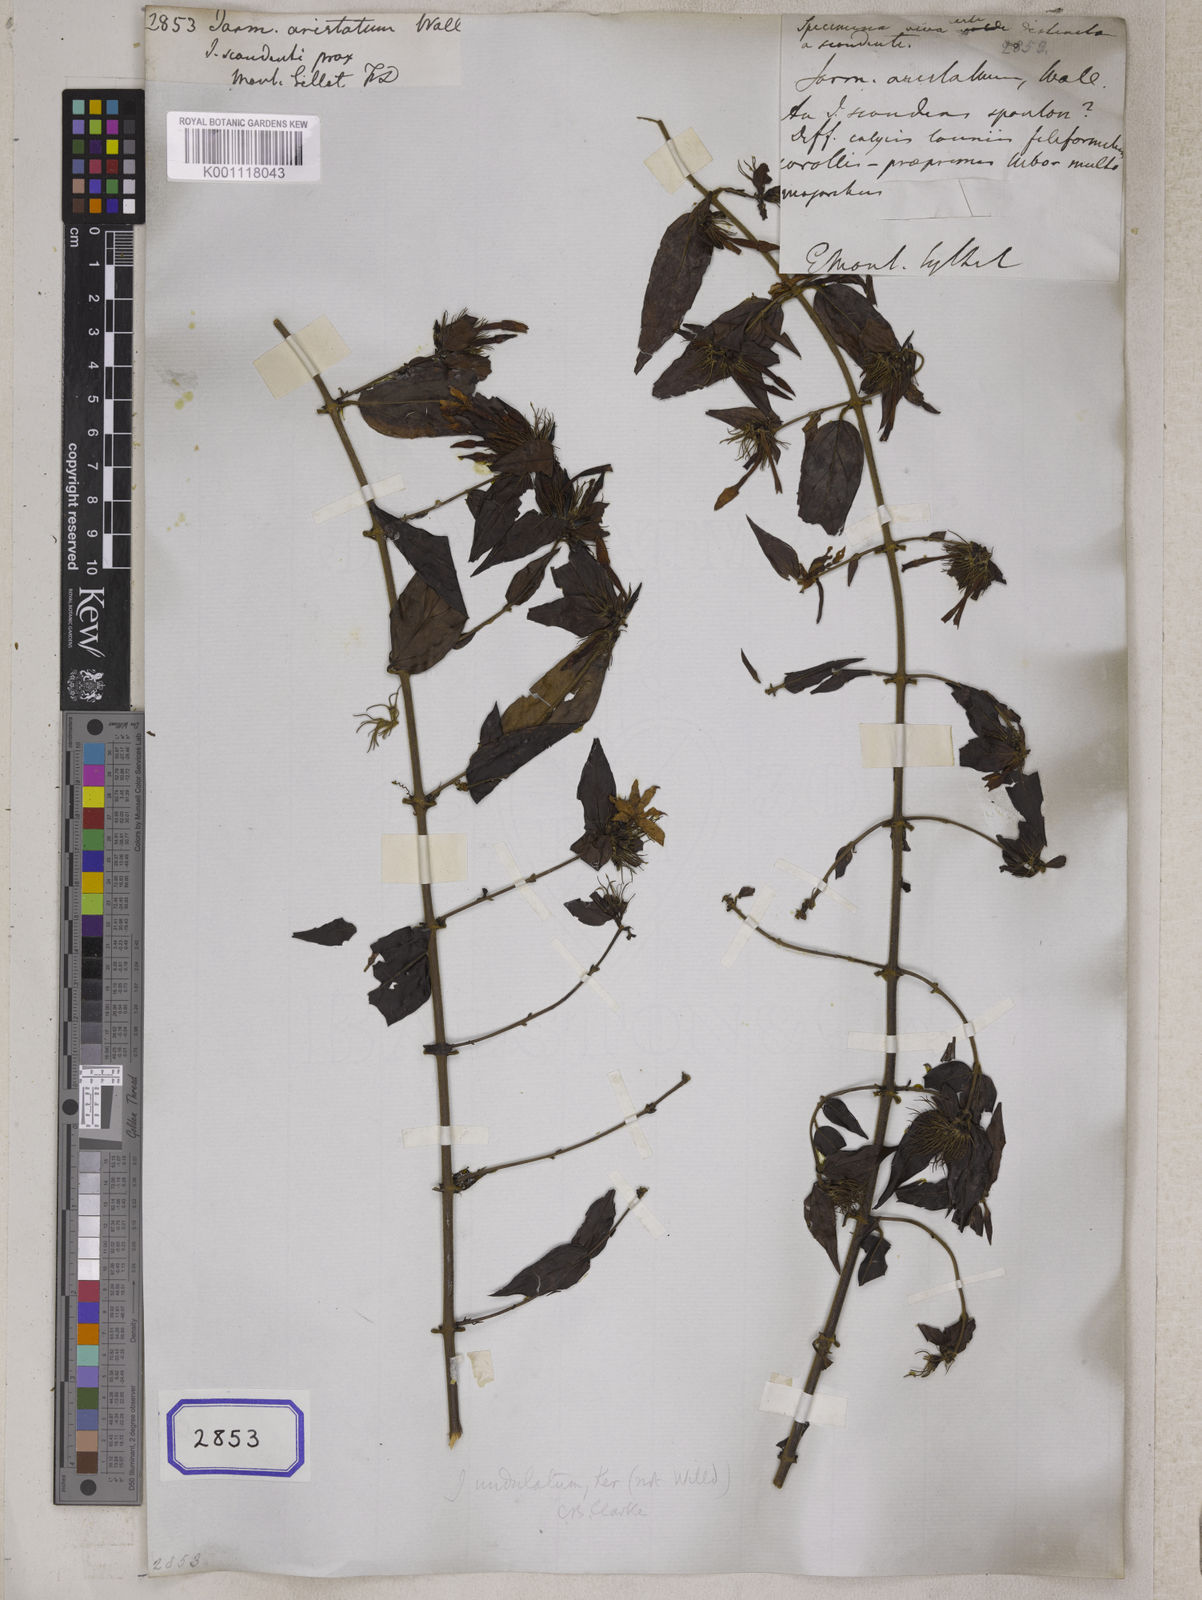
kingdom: Plantae
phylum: Tracheophyta
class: Magnoliopsida
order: Lamiales
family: Oleaceae
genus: Jasminum
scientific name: Jasminum elongatum
